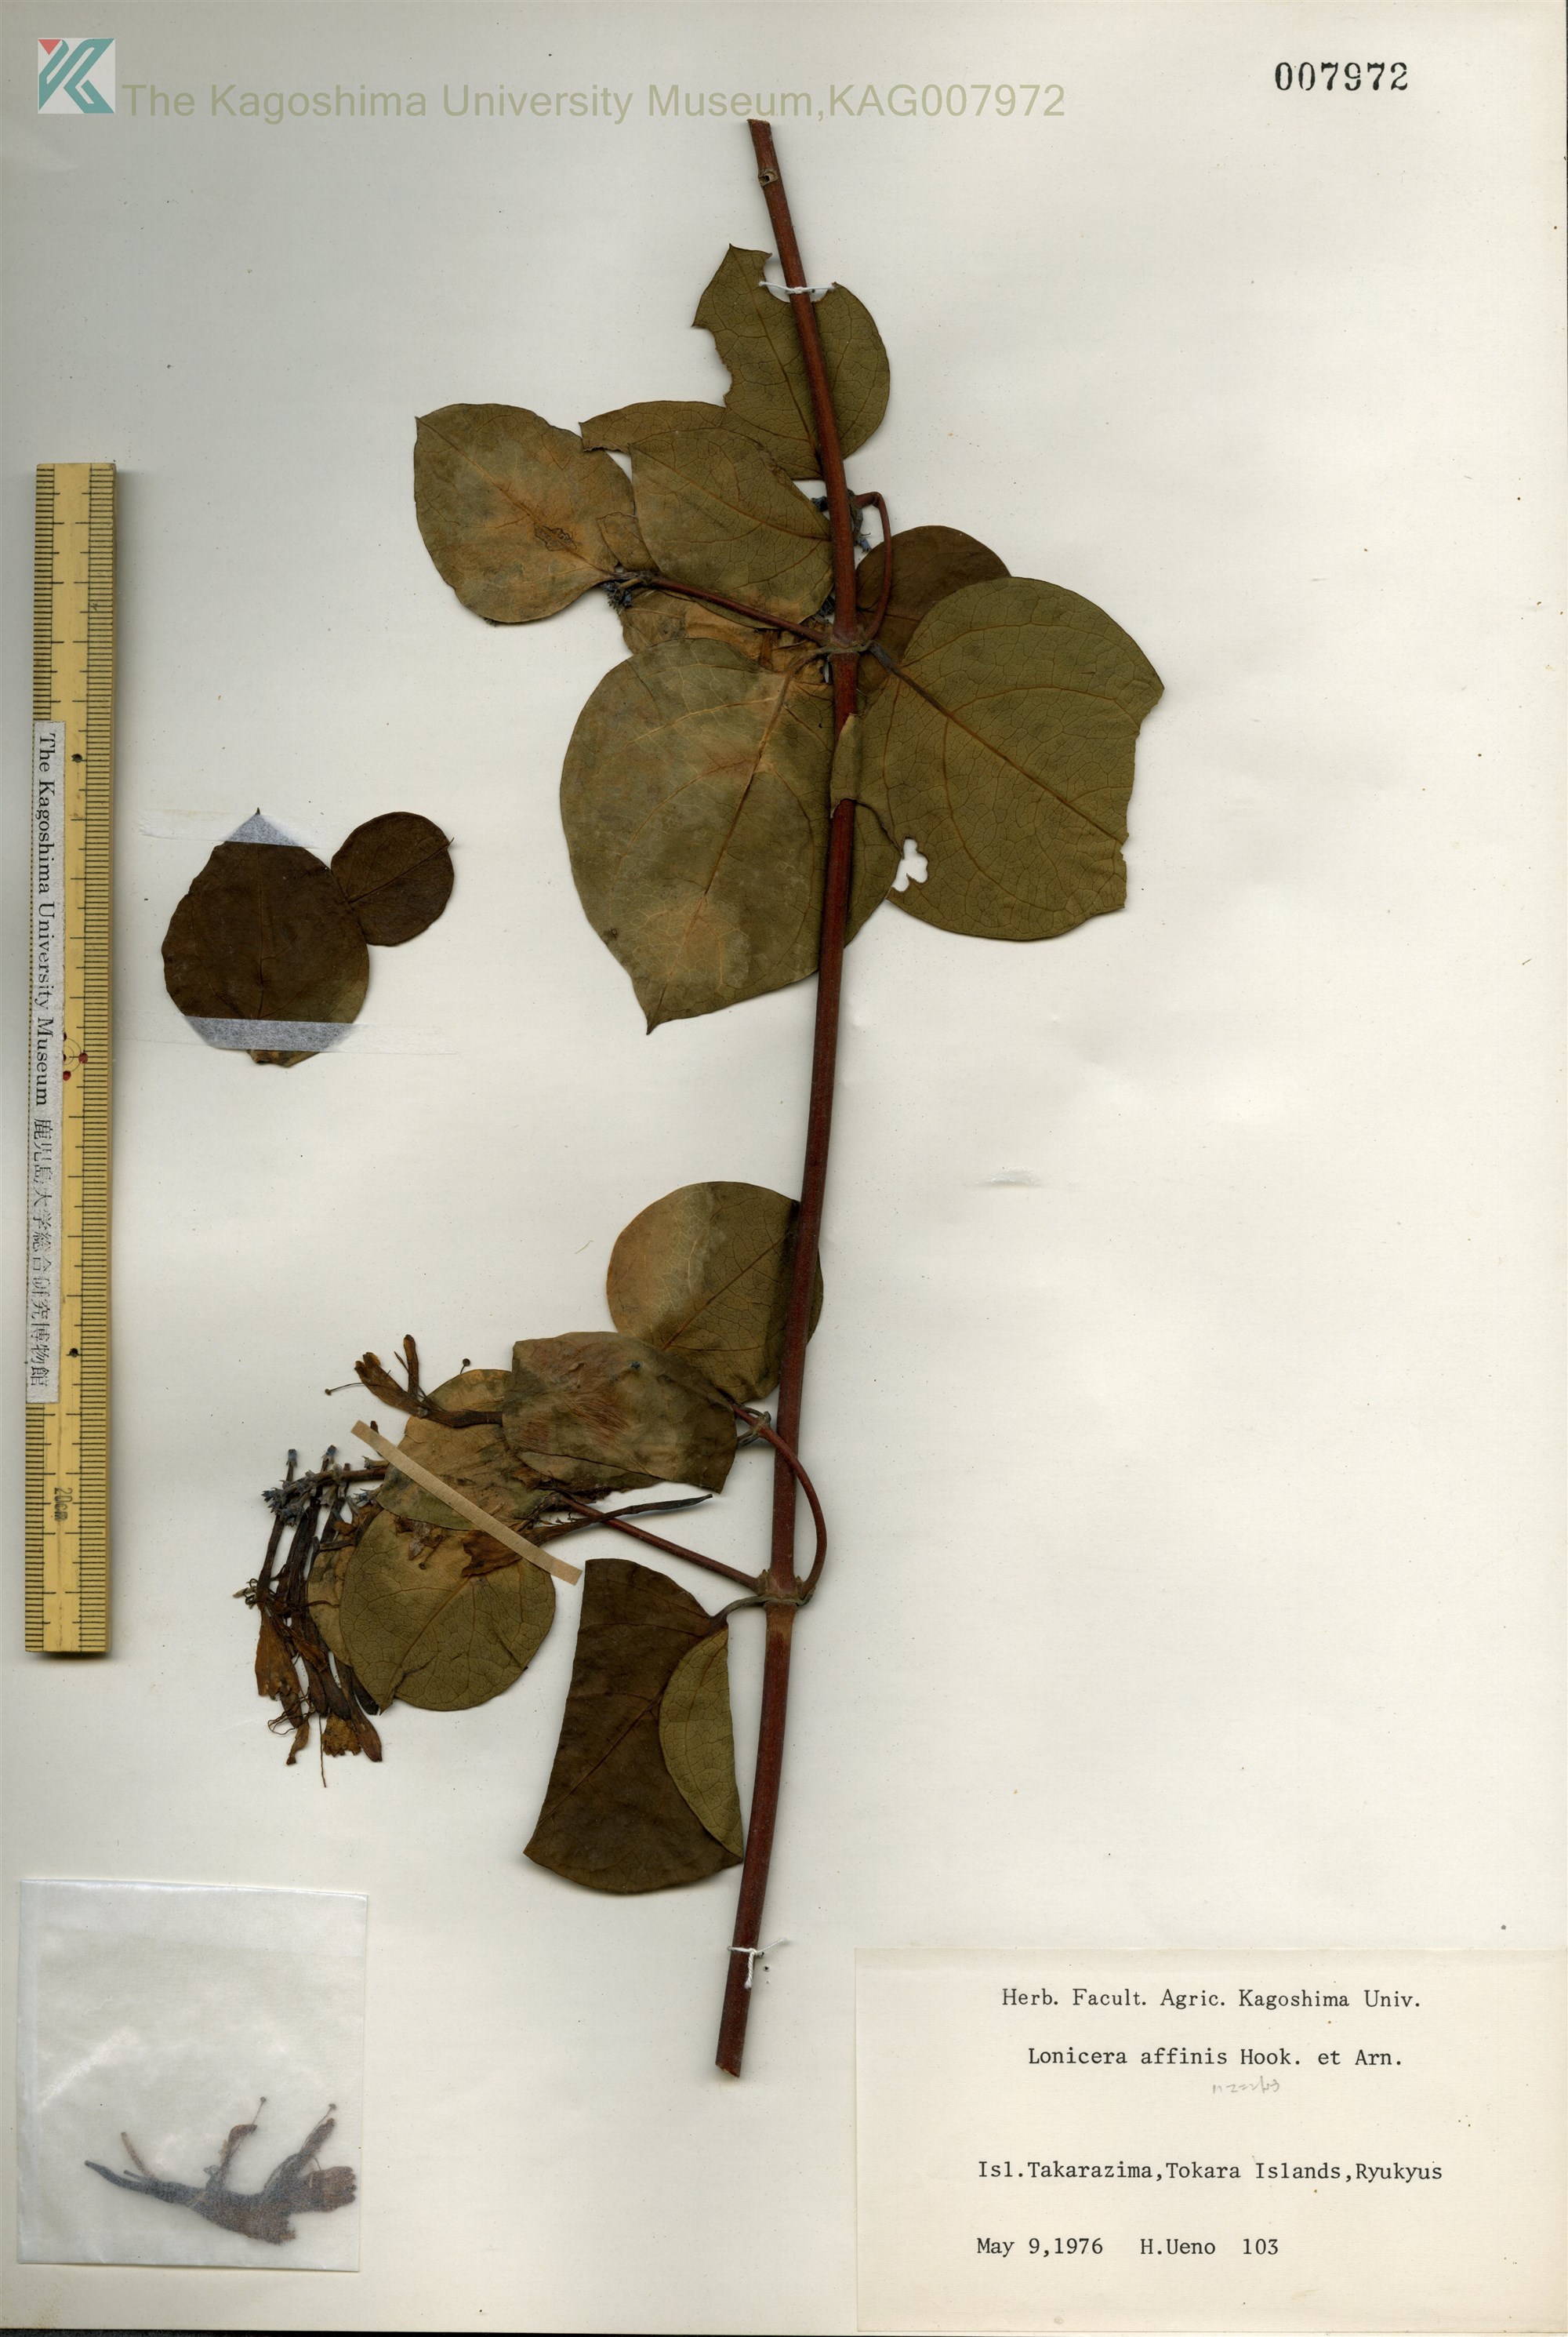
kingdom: Plantae
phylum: Tracheophyta
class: Magnoliopsida
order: Dipsacales
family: Caprifoliaceae
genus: Lonicera
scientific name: Lonicera affinis
